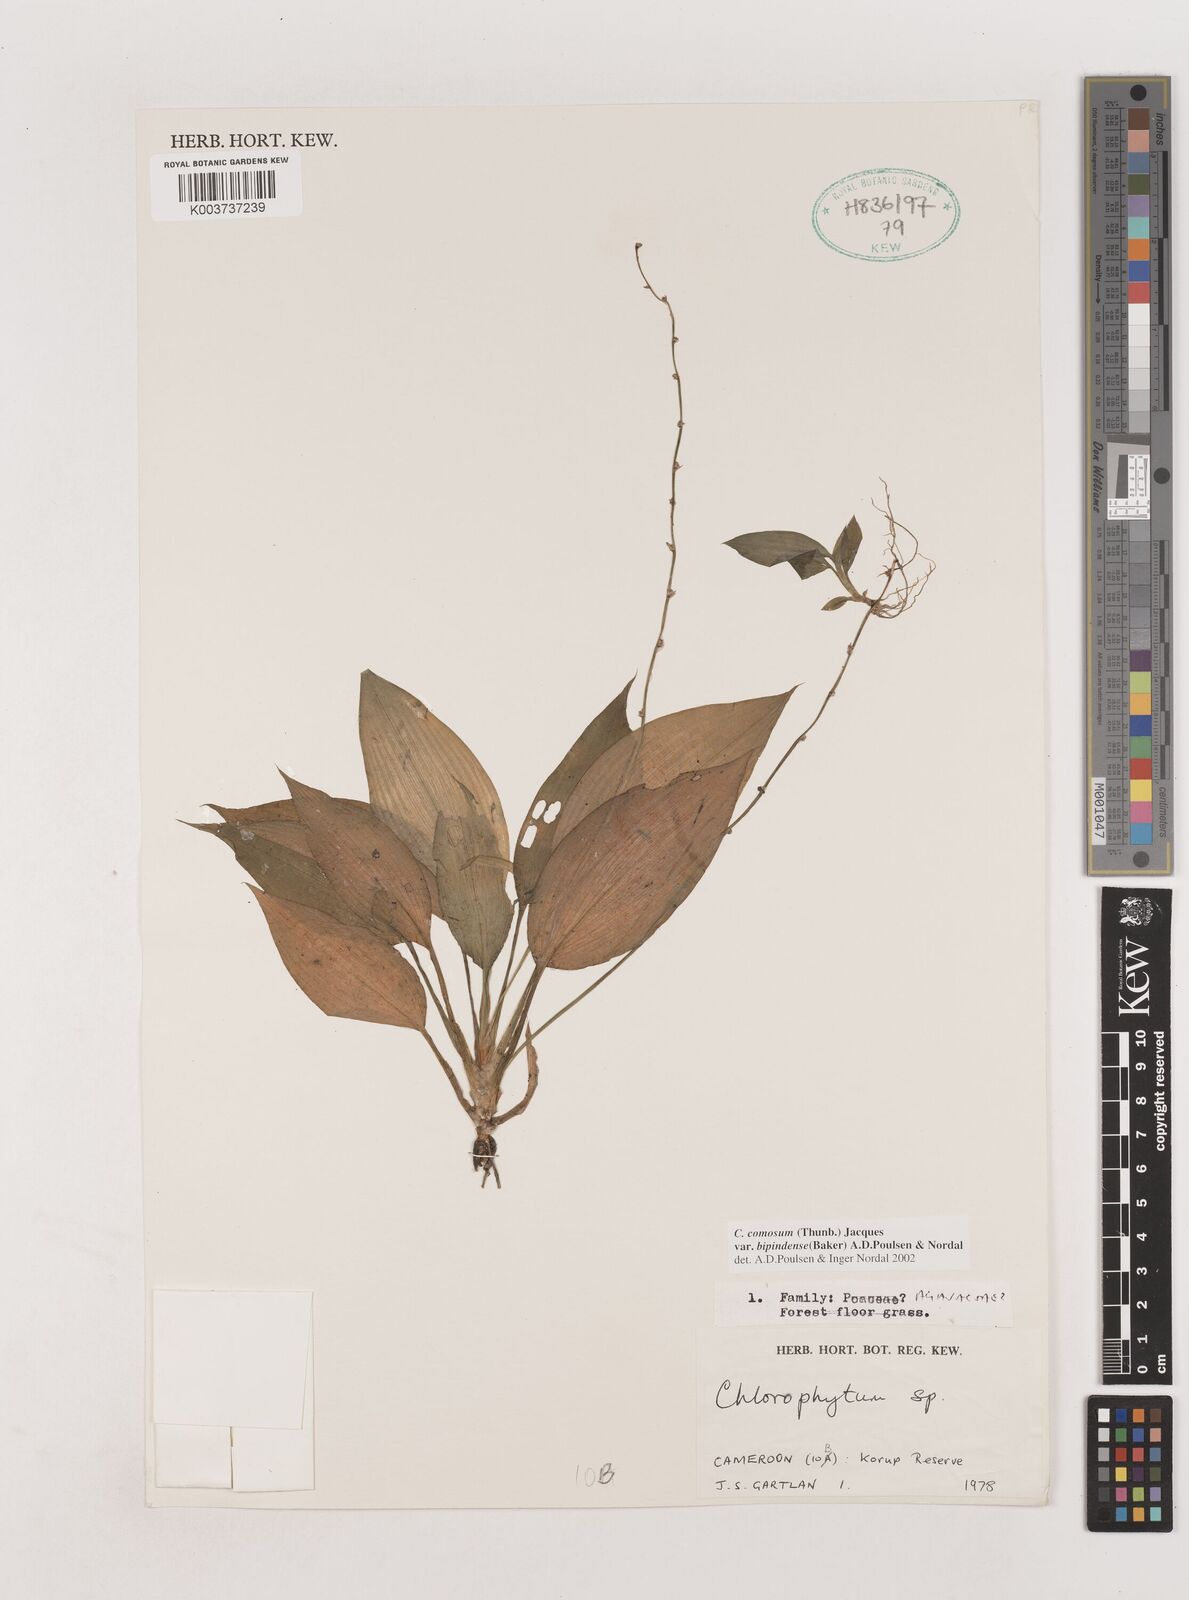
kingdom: Plantae
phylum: Tracheophyta
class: Liliopsida
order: Asparagales
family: Asparagaceae
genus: Chlorophytum
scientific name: Chlorophytum sparsiflorum
